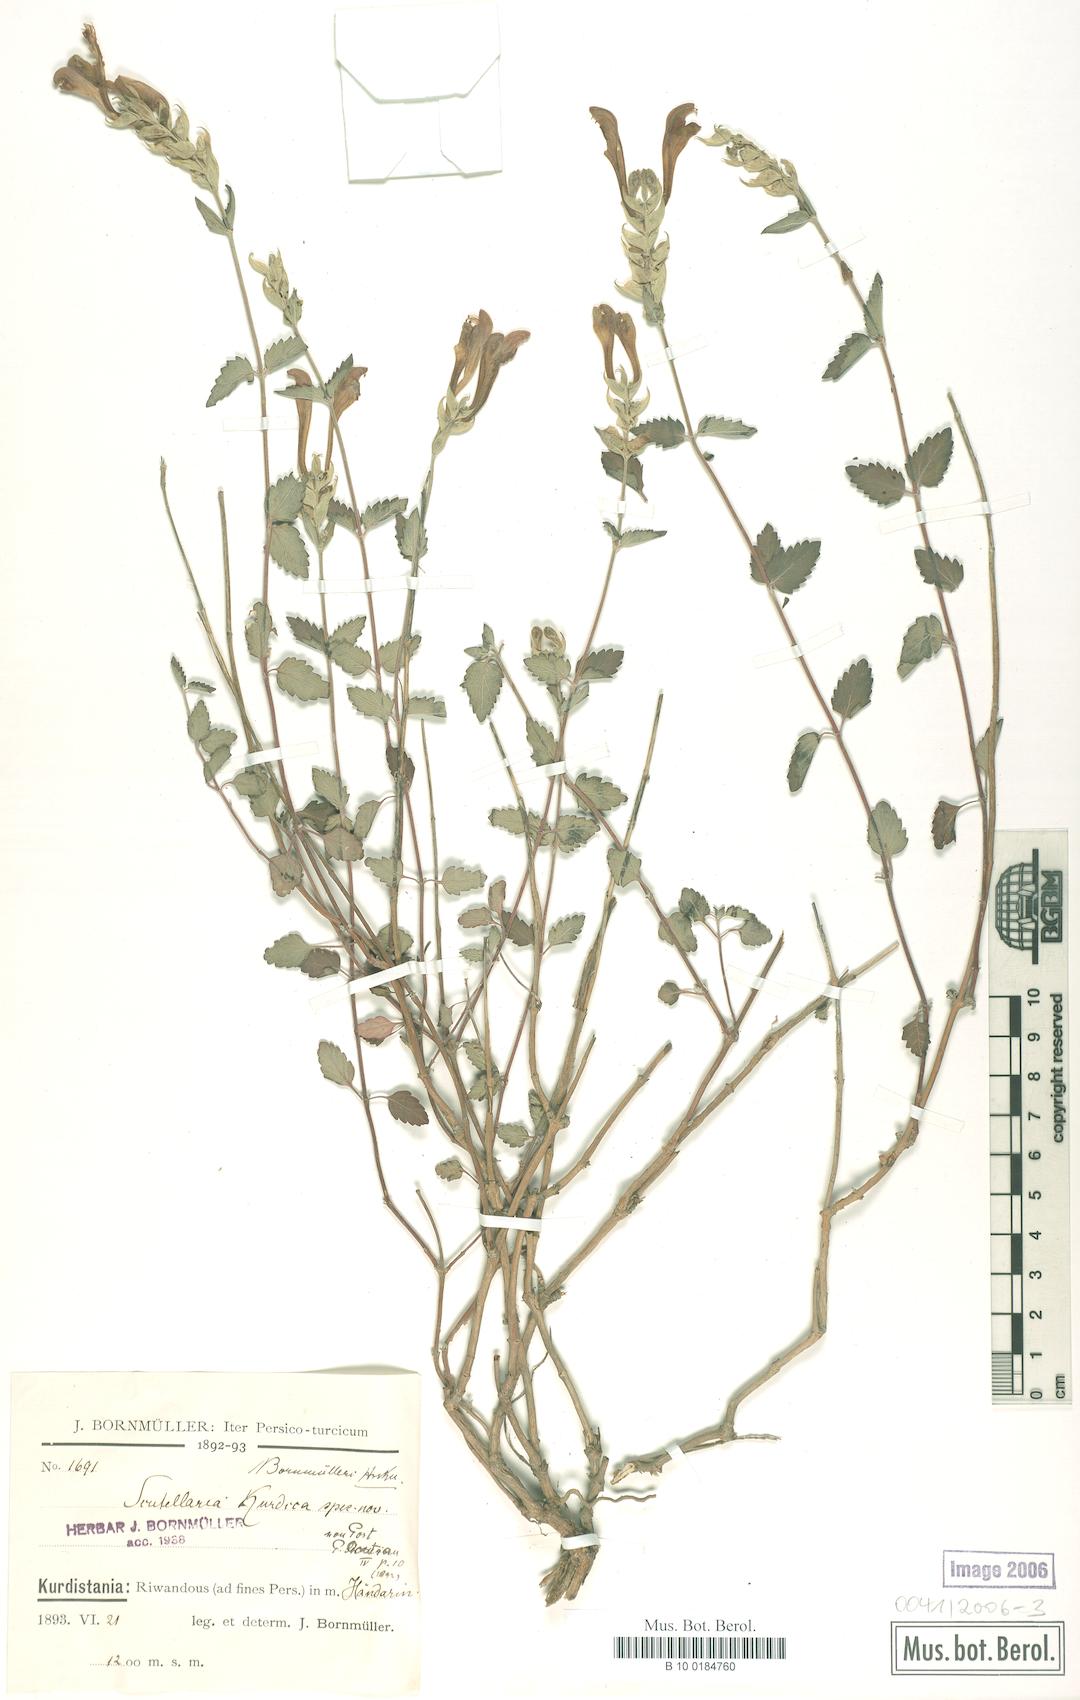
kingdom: Plantae
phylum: Tracheophyta
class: Magnoliopsida
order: Lamiales
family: Lamiaceae
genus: Scutellaria
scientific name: Scutellaria bornmuelleri
